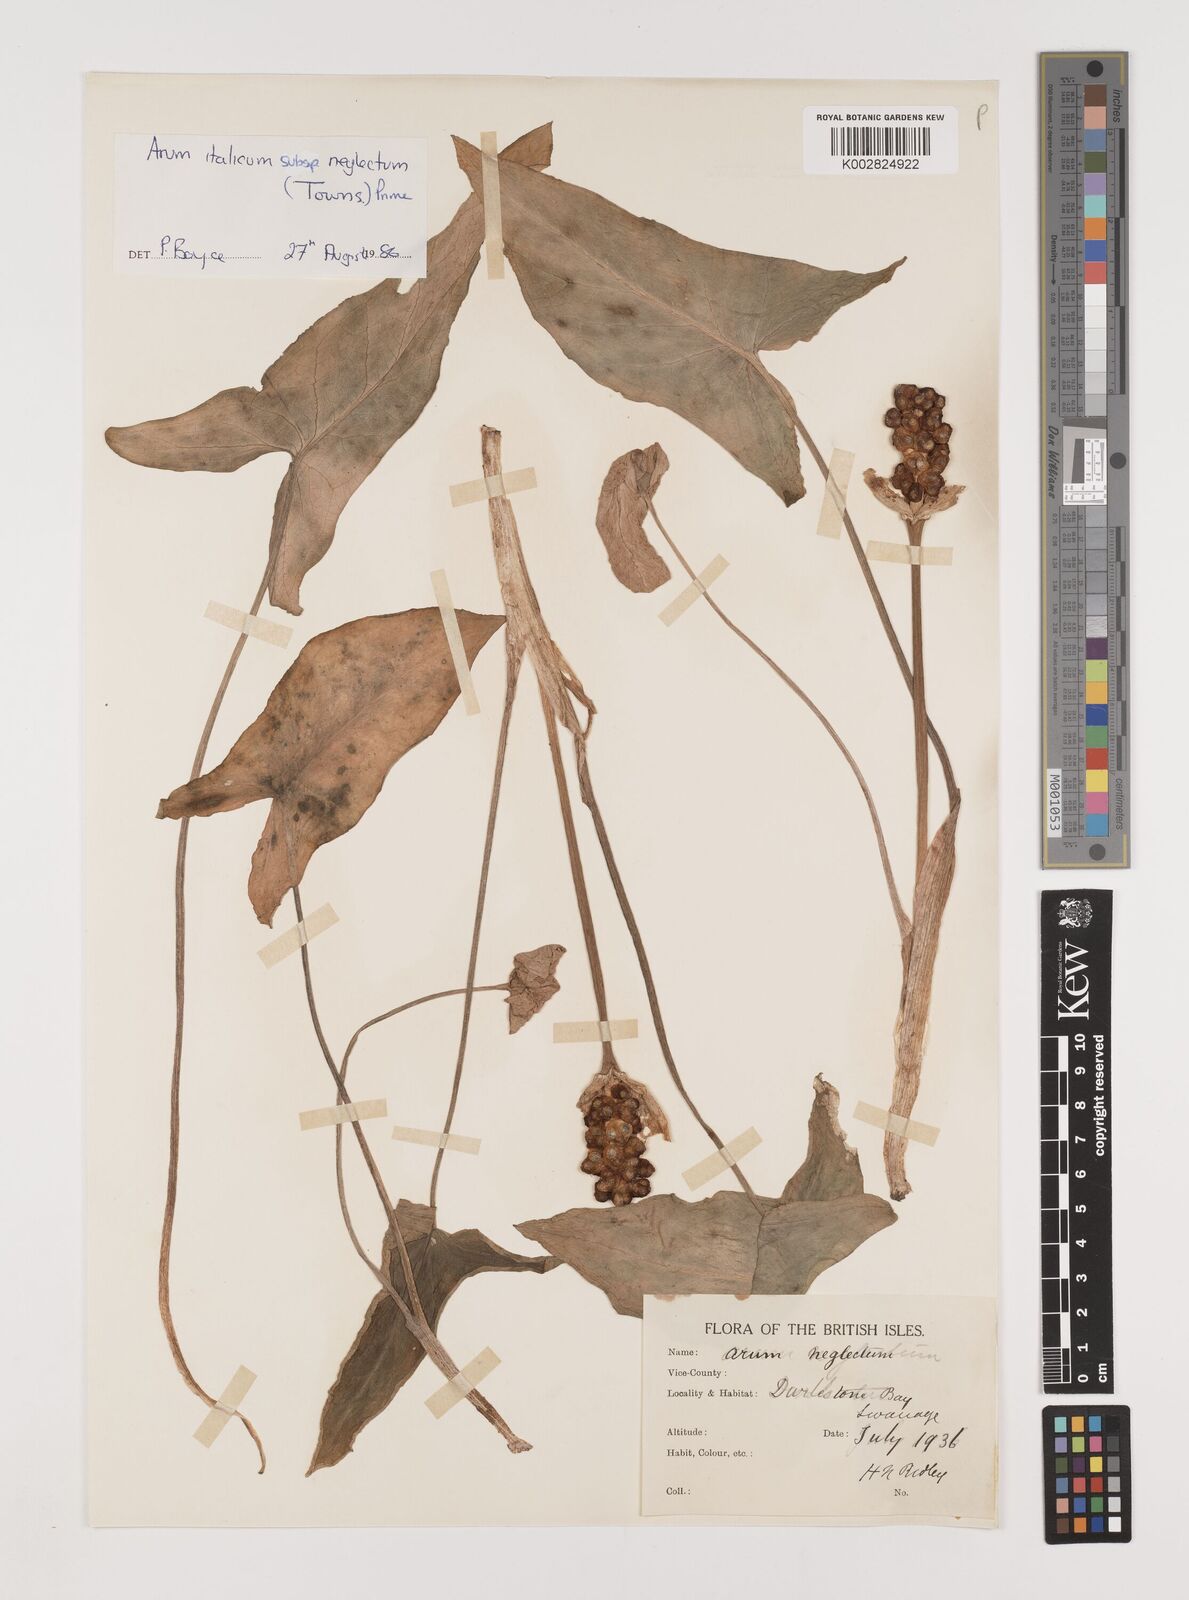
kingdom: Plantae
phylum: Tracheophyta
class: Liliopsida
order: Alismatales
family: Araceae
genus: Arum
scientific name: Arum italicum
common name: Italian lords-and-ladies
